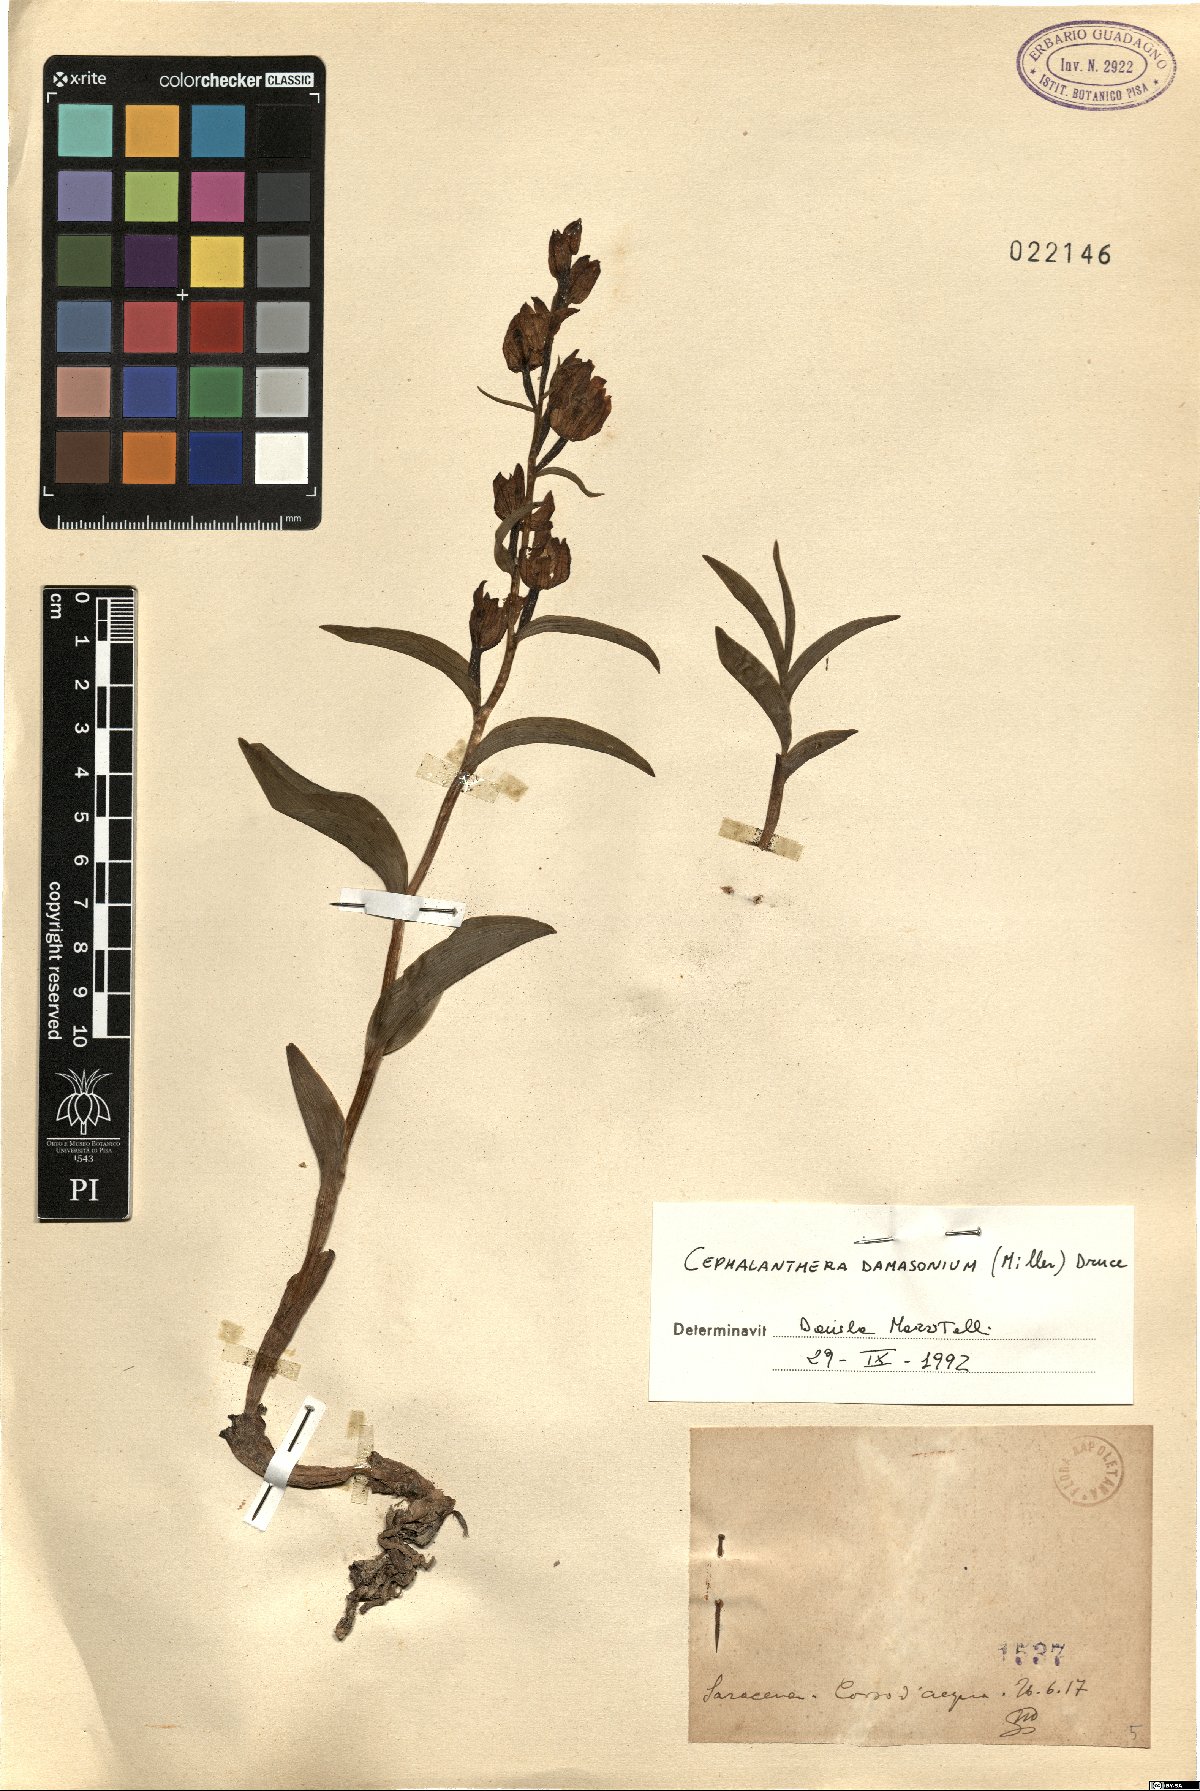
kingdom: Plantae
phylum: Tracheophyta
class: Liliopsida
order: Asparagales
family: Orchidaceae
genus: Cephalanthera
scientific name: Cephalanthera damasonium
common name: White helleborine
